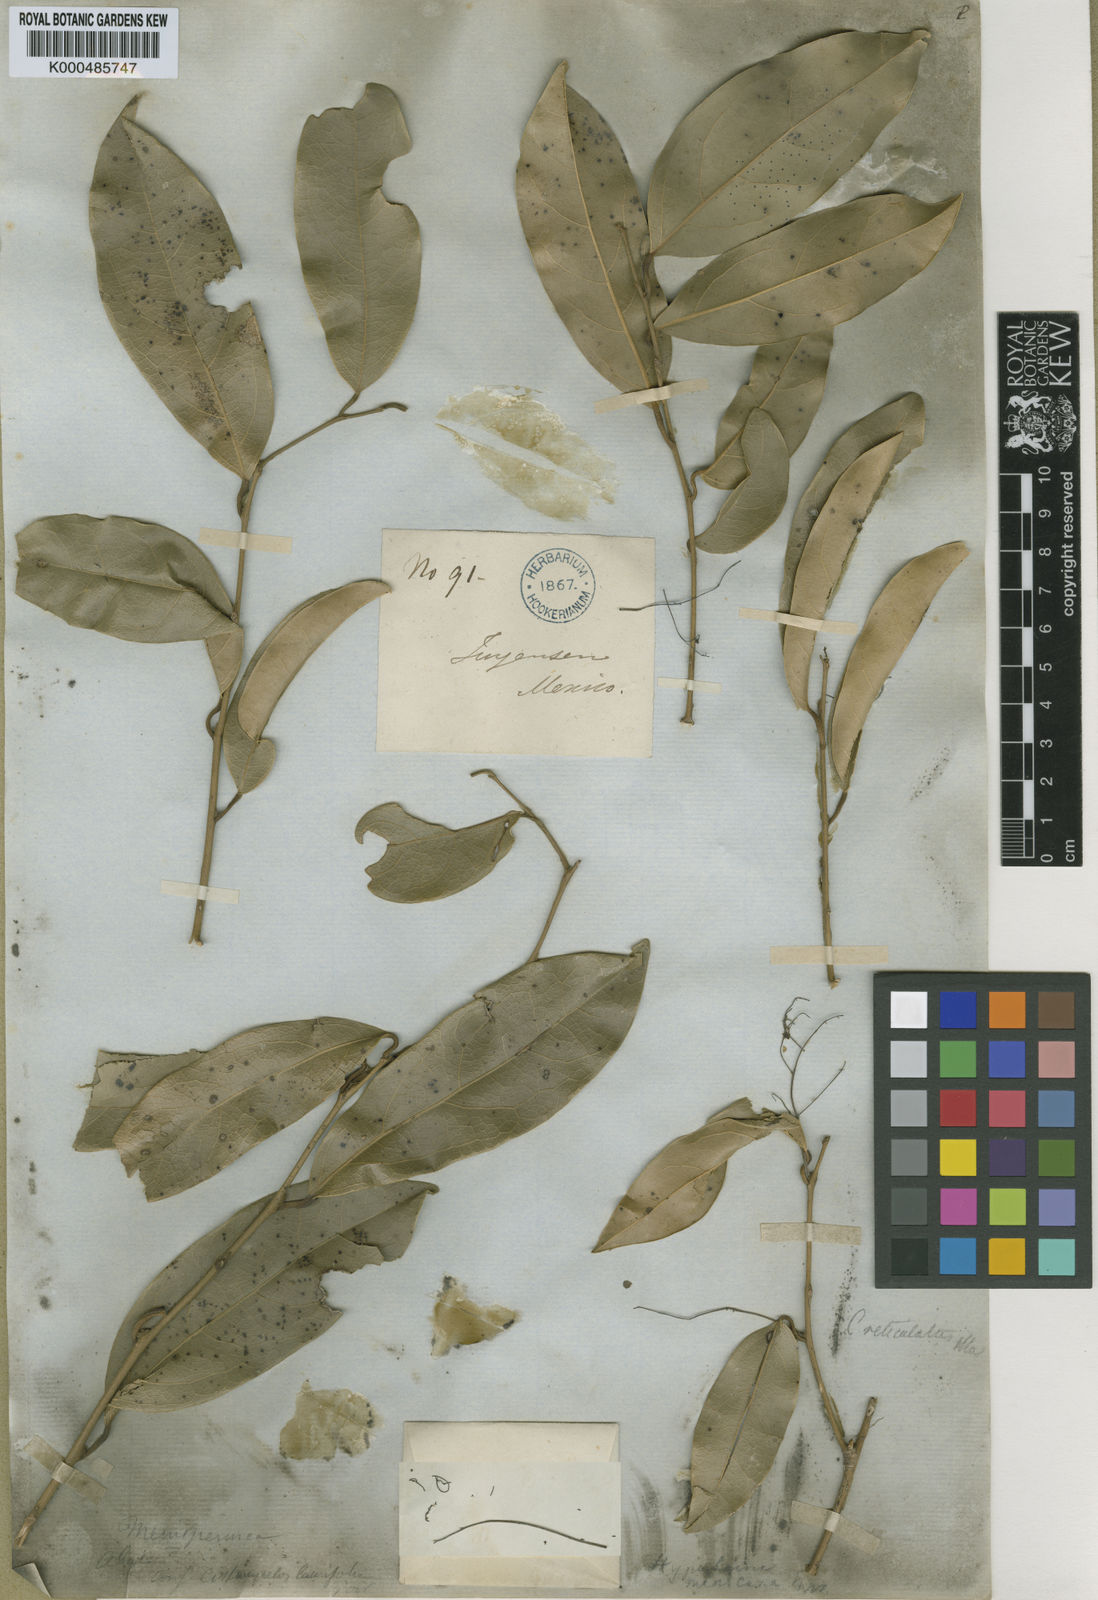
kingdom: Plantae
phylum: Tracheophyta
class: Magnoliopsida
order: Ranunculales
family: Menispermaceae
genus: Hyperbaena
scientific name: Hyperbaena mexicana
